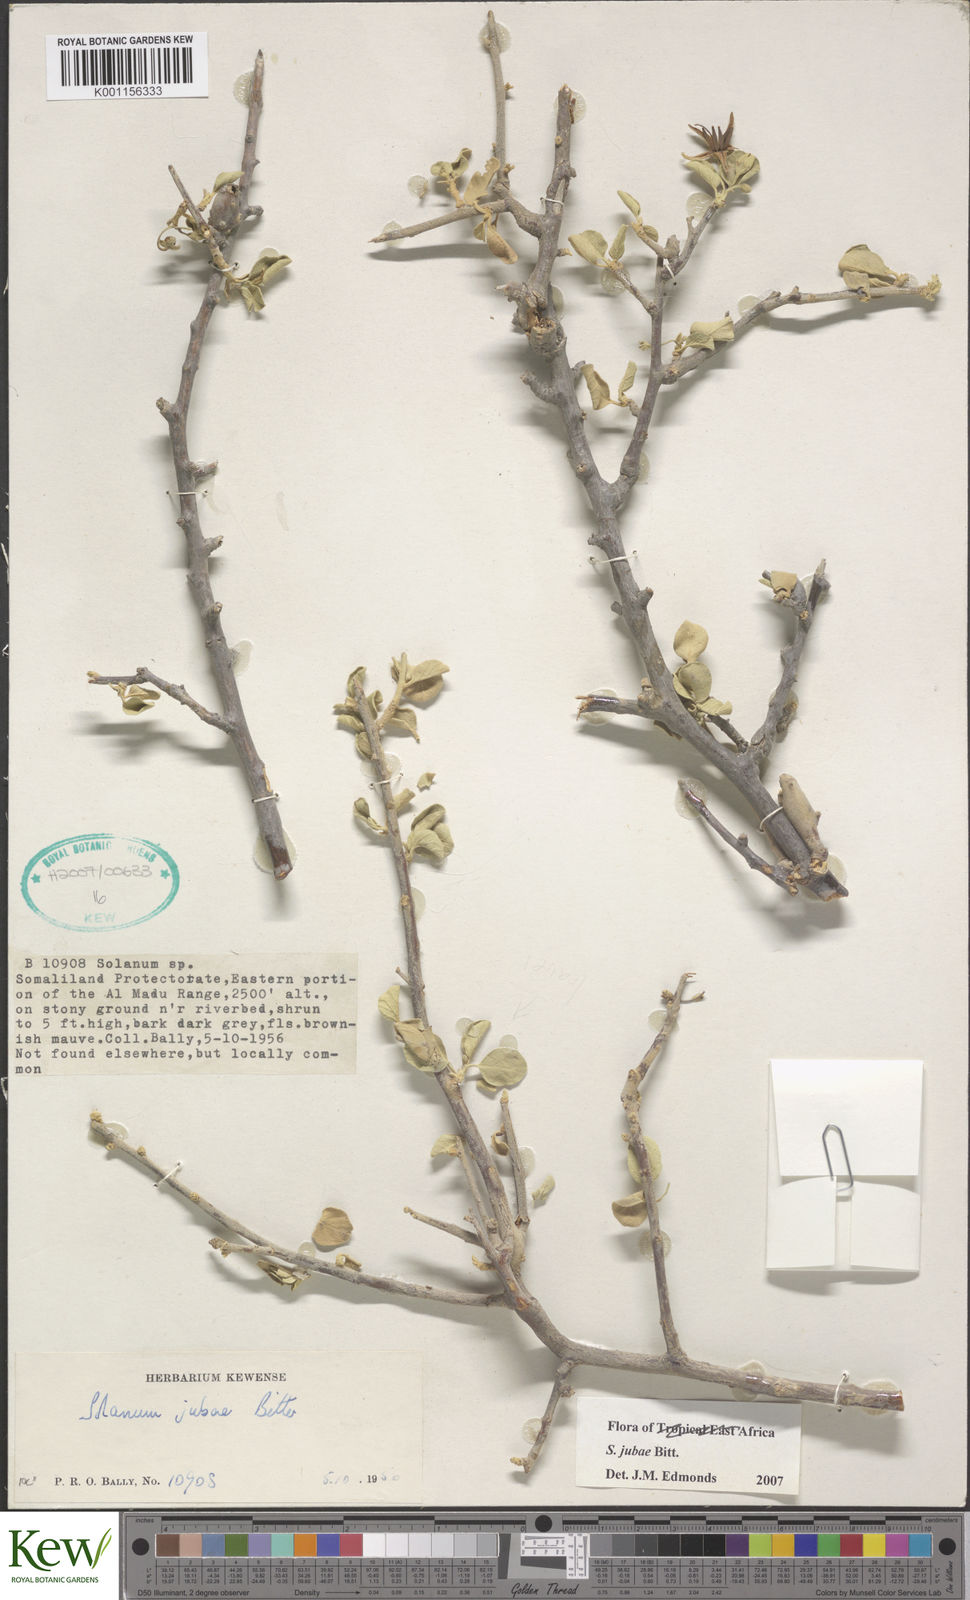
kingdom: Plantae
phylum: Tracheophyta
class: Magnoliopsida
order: Solanales
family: Solanaceae
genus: Solanum
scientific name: Solanum jubae
